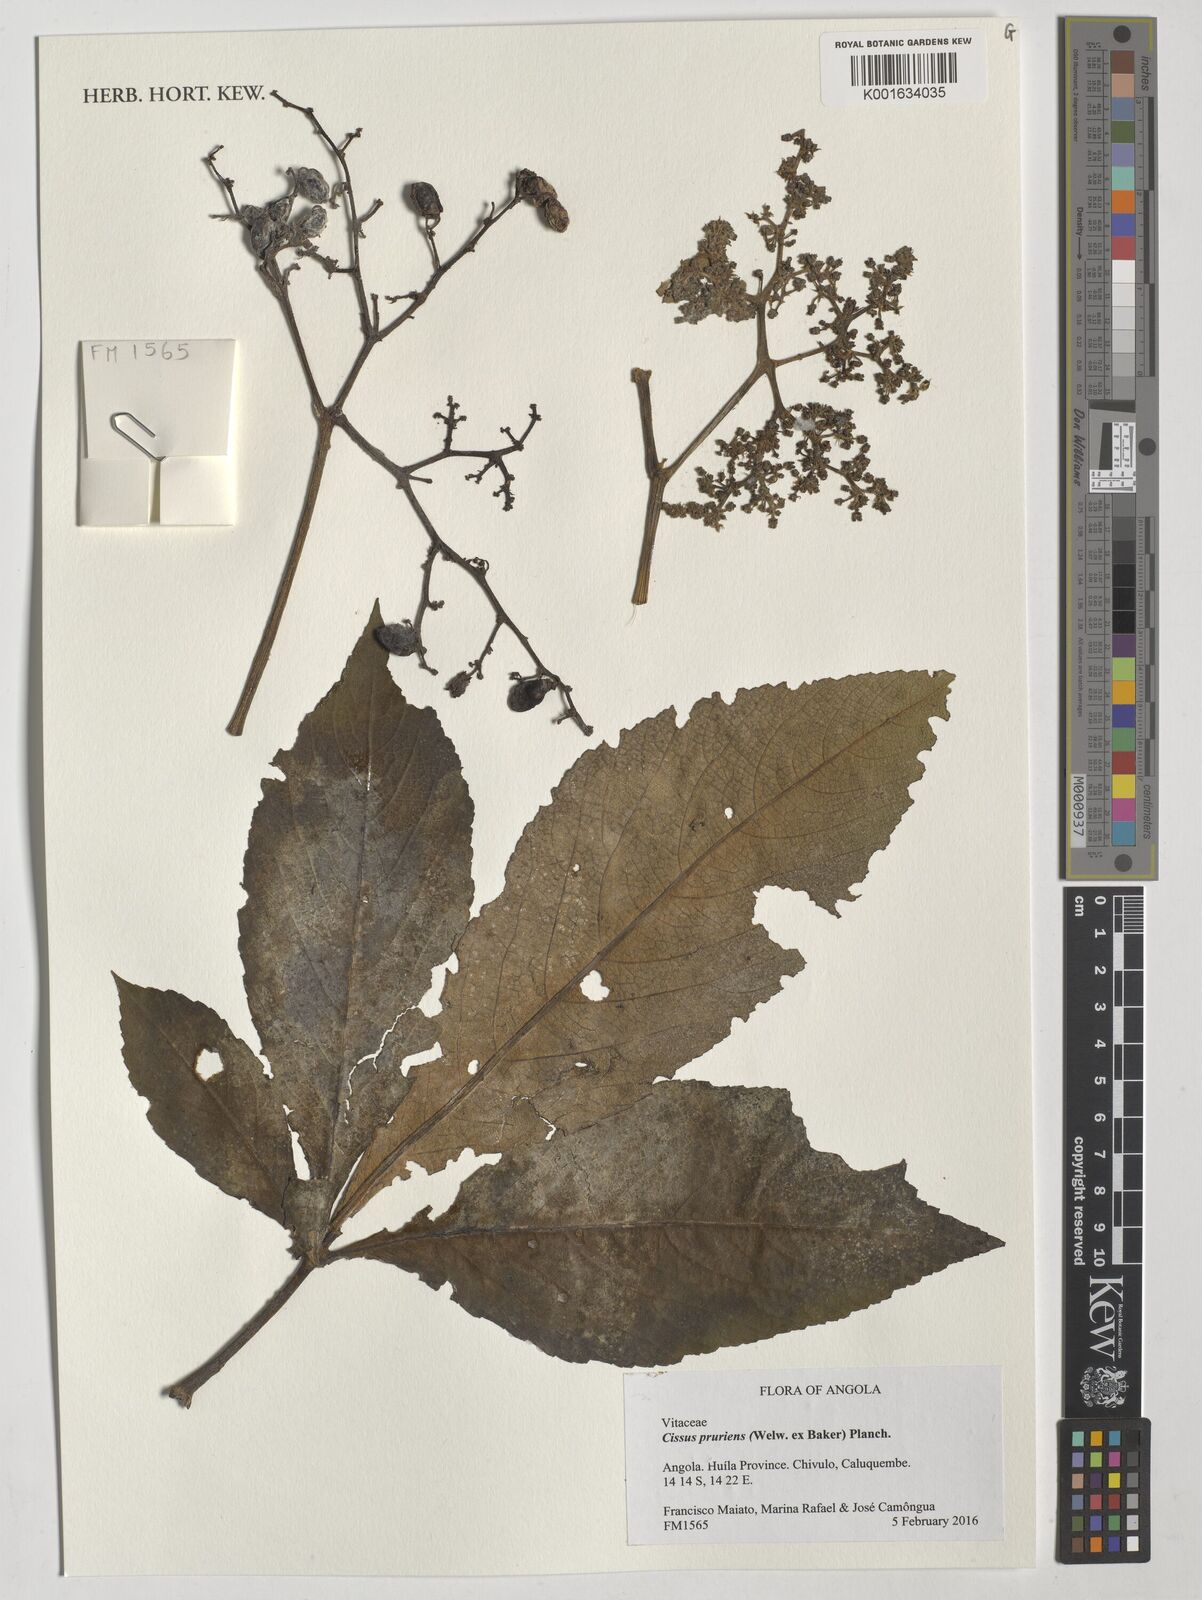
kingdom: Plantae
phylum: Tracheophyta
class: Magnoliopsida
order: Vitales
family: Vitaceae
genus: Cyphostemma
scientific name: Cyphostemma pruriens
